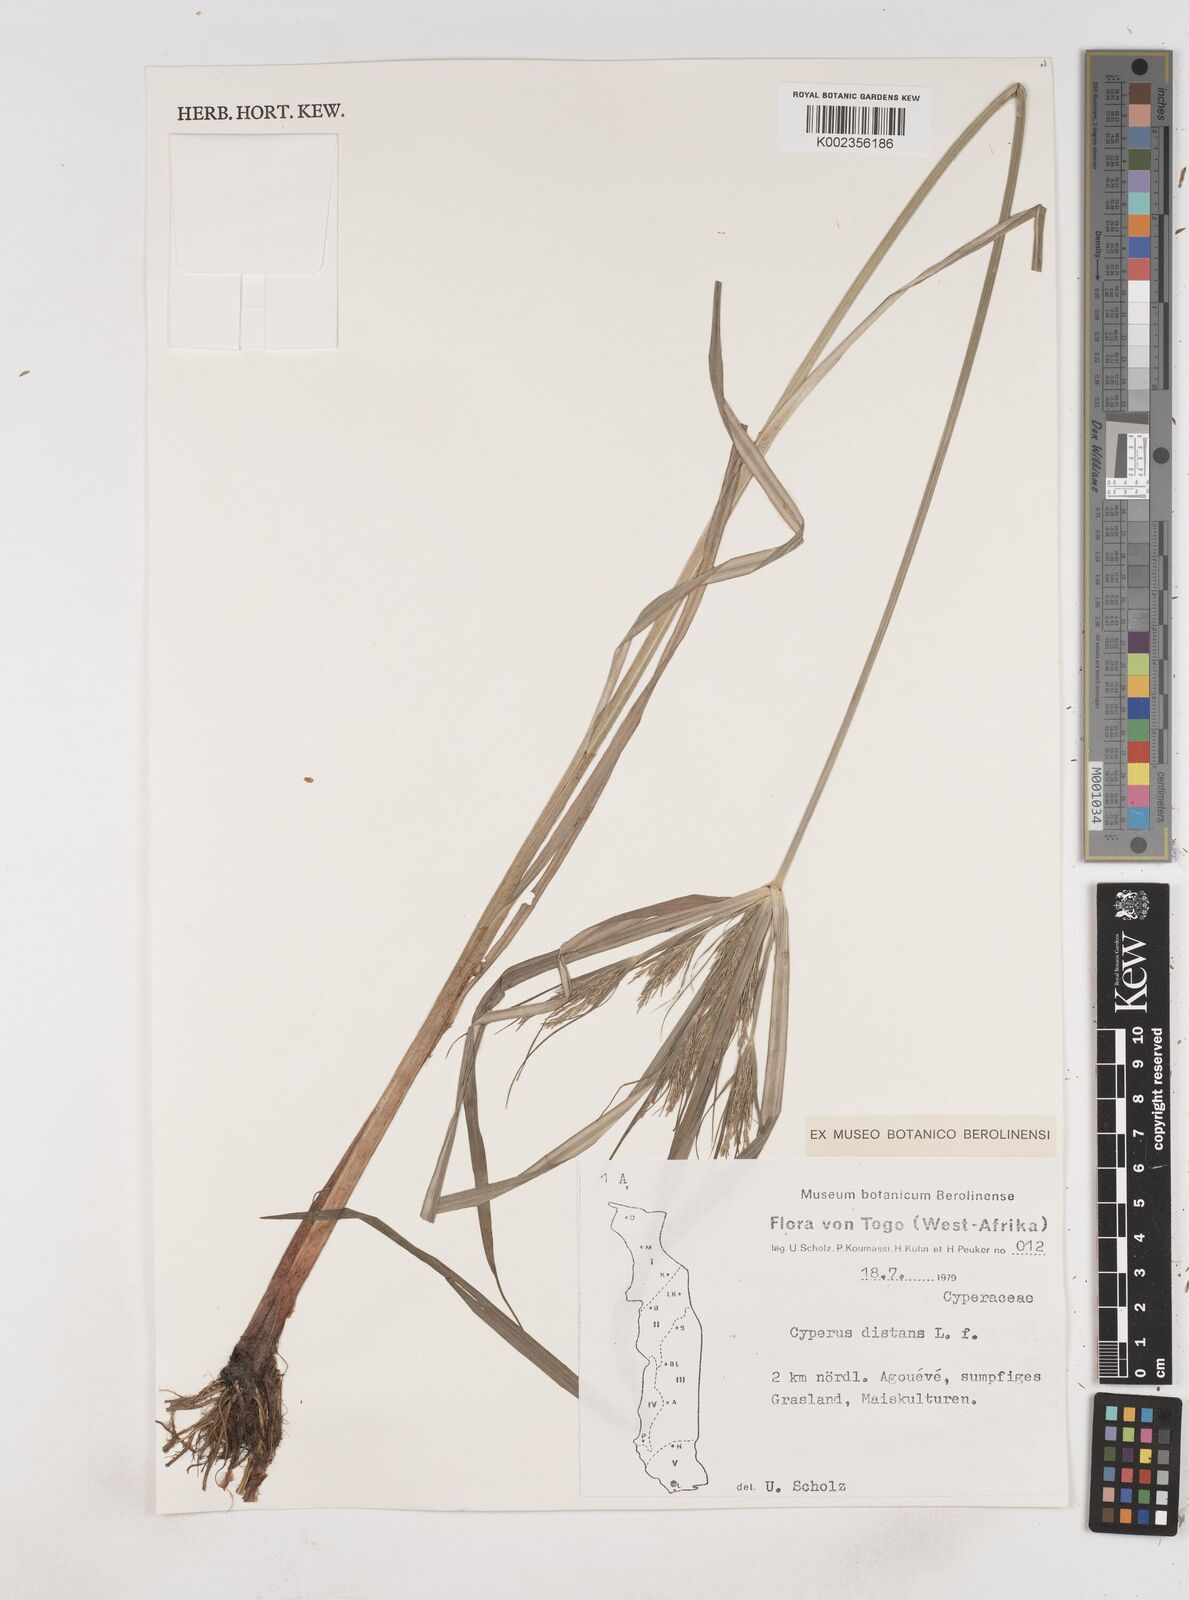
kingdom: Plantae
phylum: Tracheophyta
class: Liliopsida
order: Poales
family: Cyperaceae
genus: Cyperus
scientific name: Cyperus distans
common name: Slender cyperus
